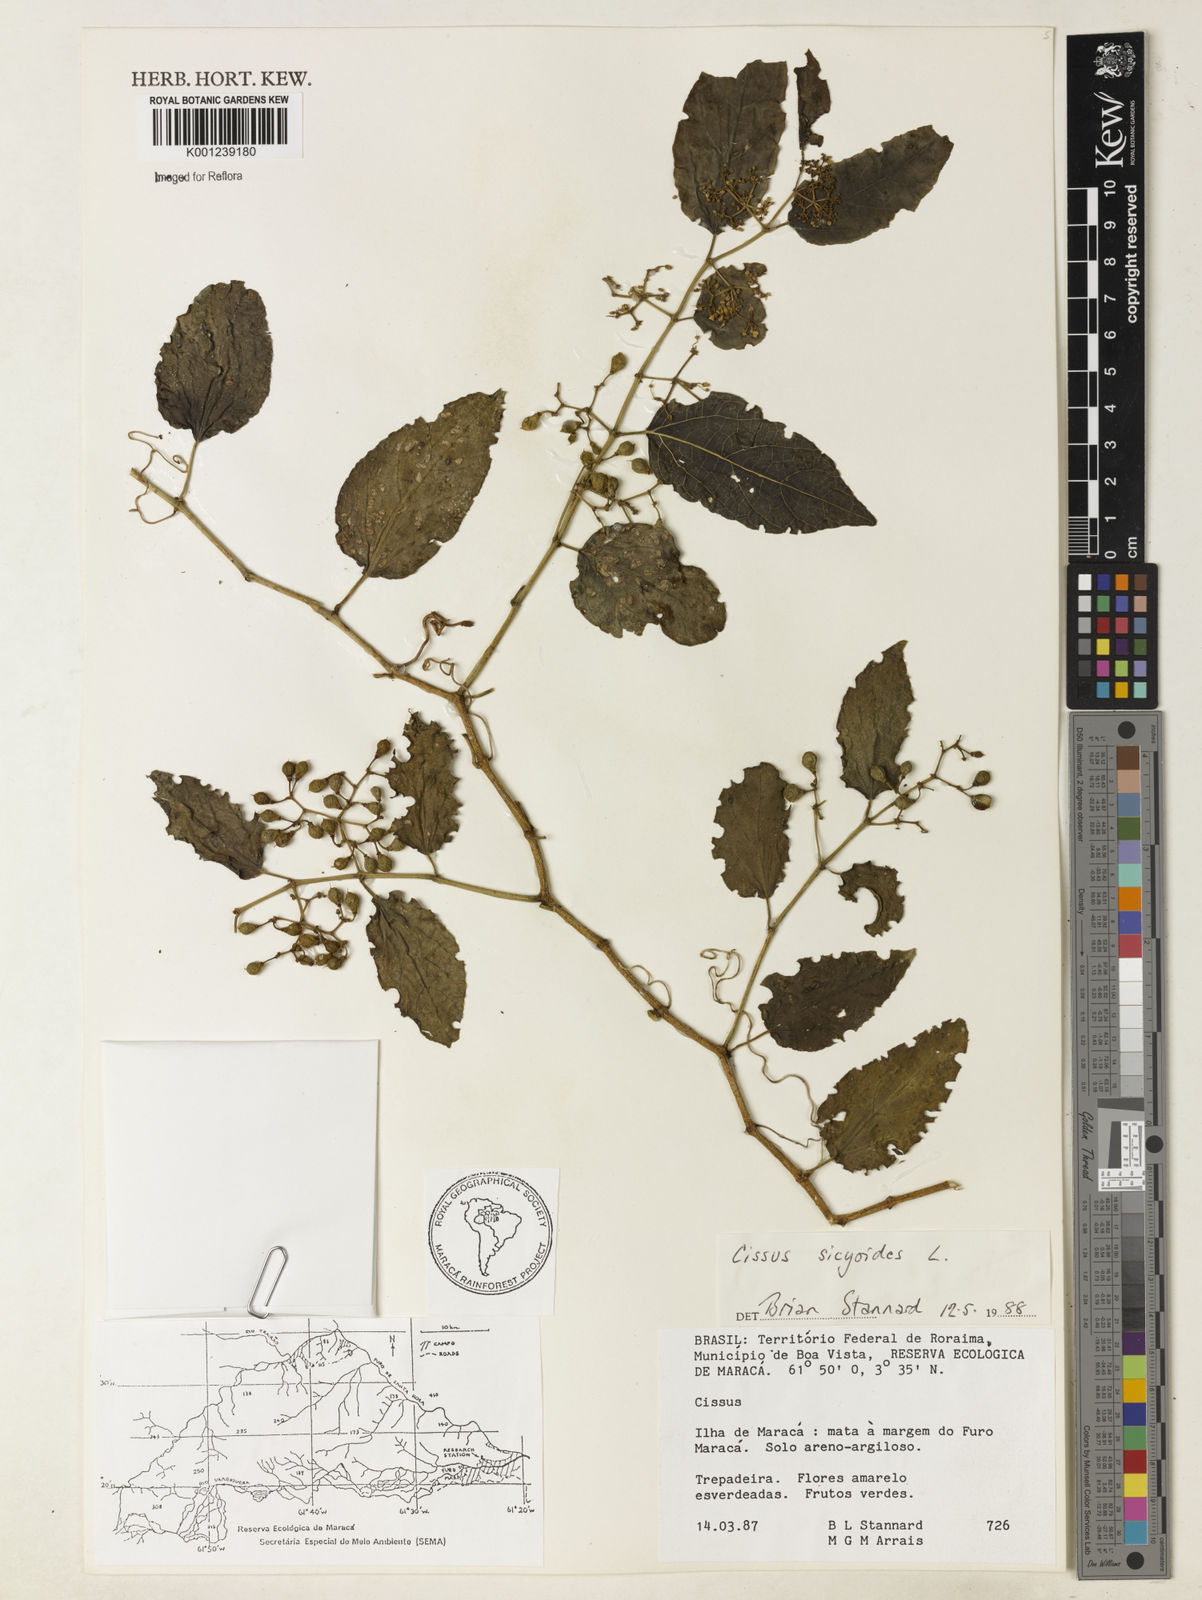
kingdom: Plantae
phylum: Tracheophyta
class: Magnoliopsida
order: Vitales
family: Vitaceae
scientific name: Vitaceae
